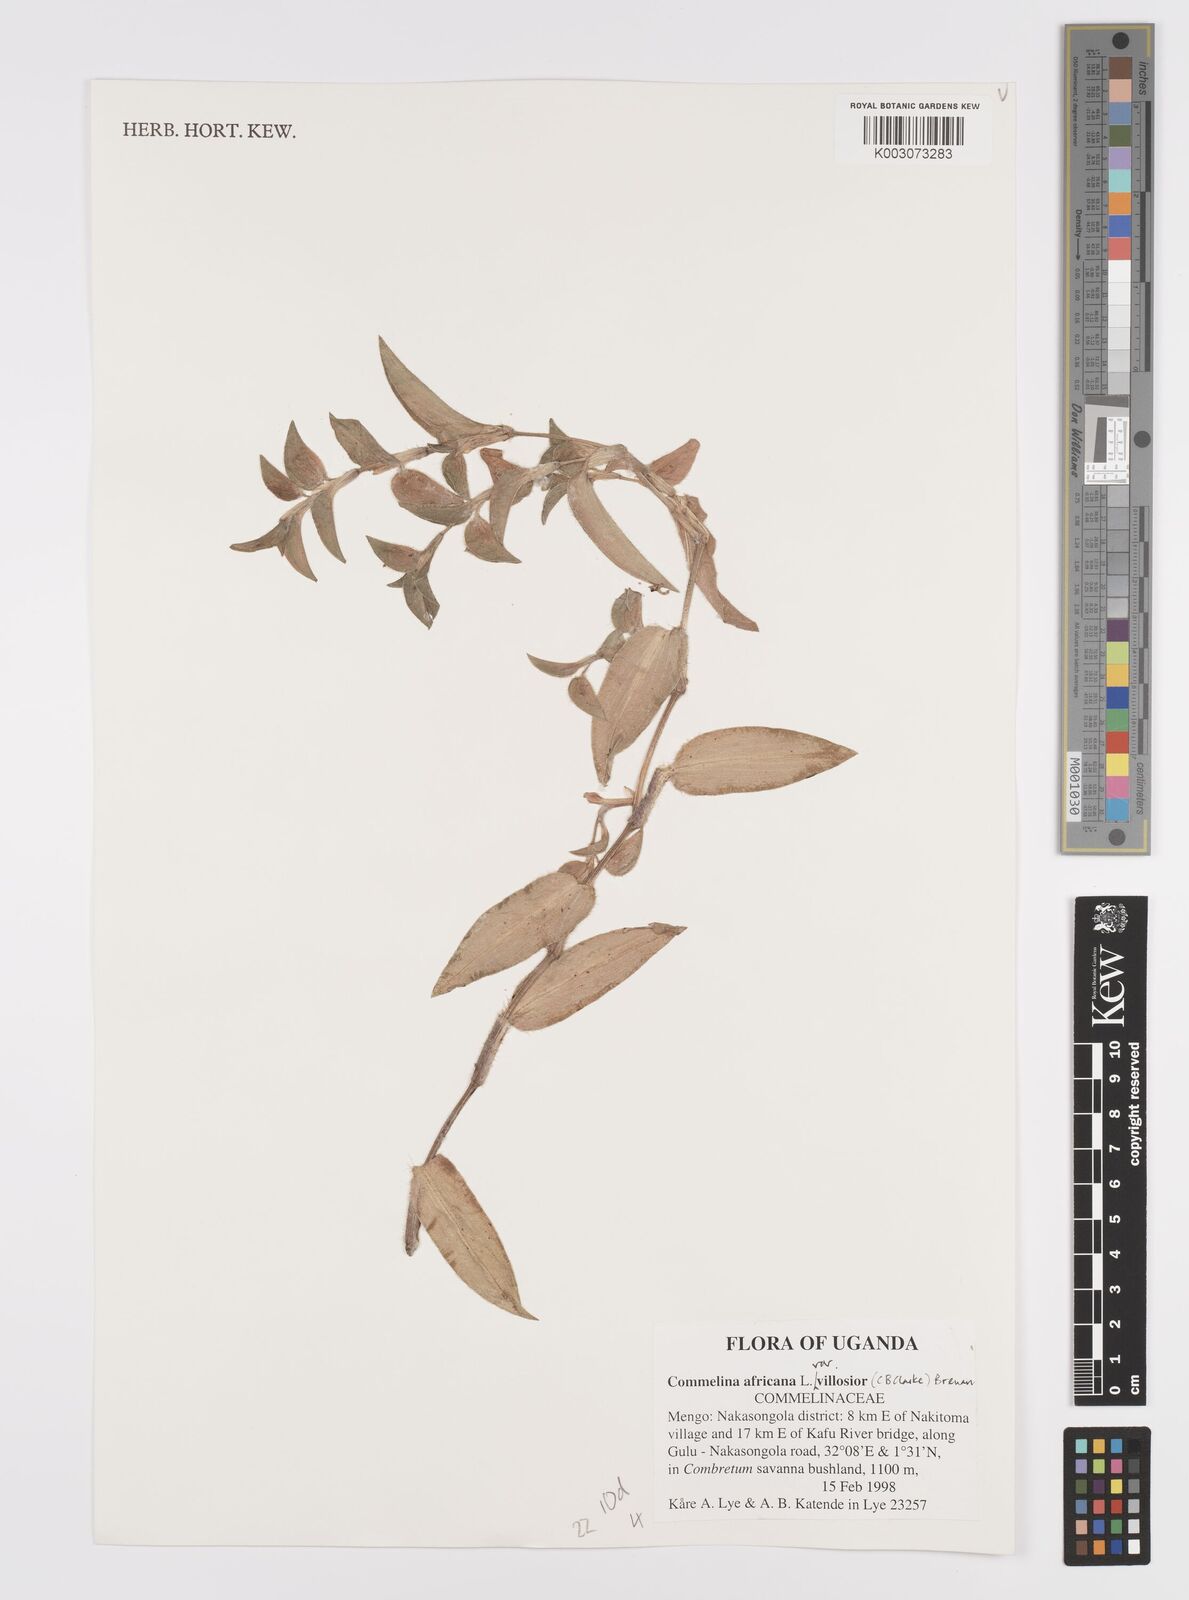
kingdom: Plantae
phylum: Tracheophyta
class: Liliopsida
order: Commelinales
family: Commelinaceae
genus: Commelina
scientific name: Commelina africana
